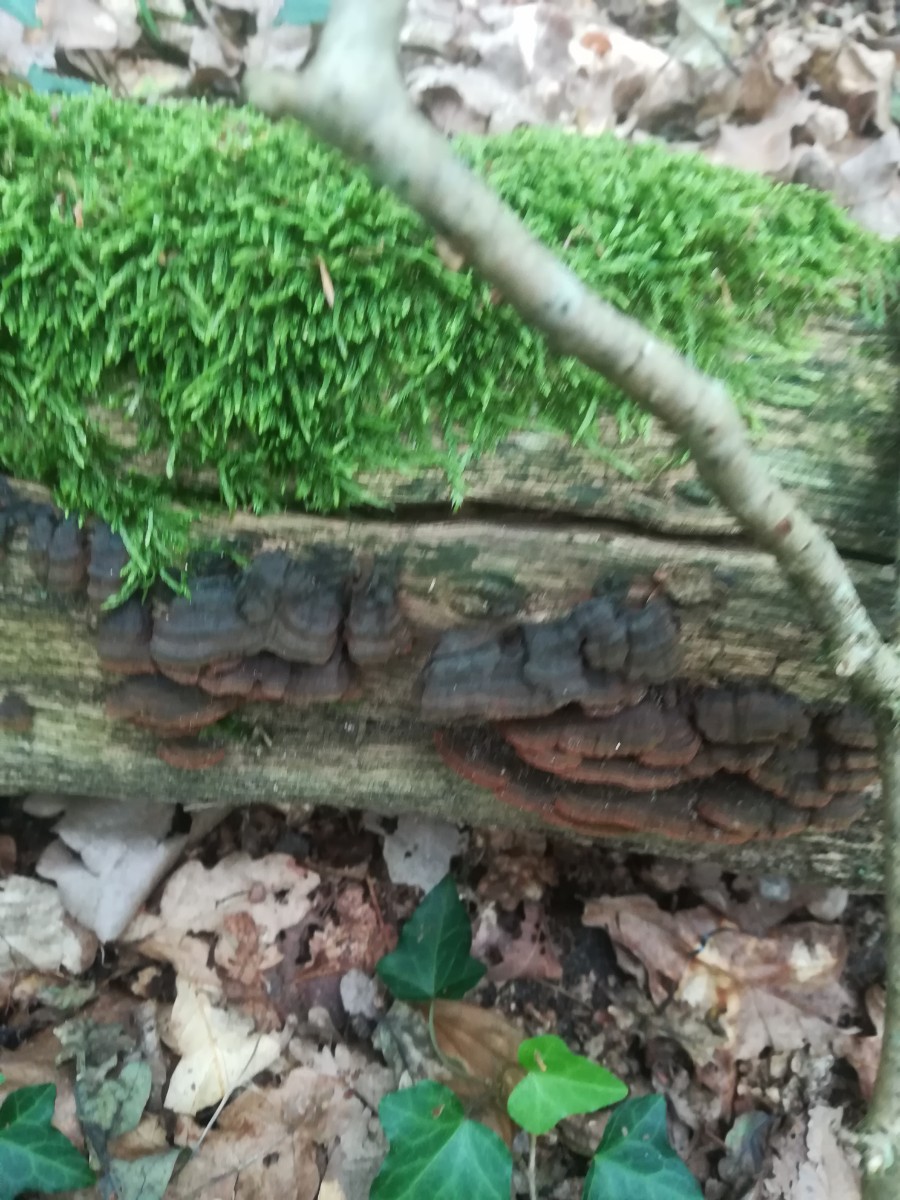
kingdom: Fungi
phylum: Basidiomycota
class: Agaricomycetes
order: Hymenochaetales
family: Hymenochaetaceae
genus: Hymenochaete
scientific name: Hymenochaete rubiginosa
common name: stiv ruslædersvamp
